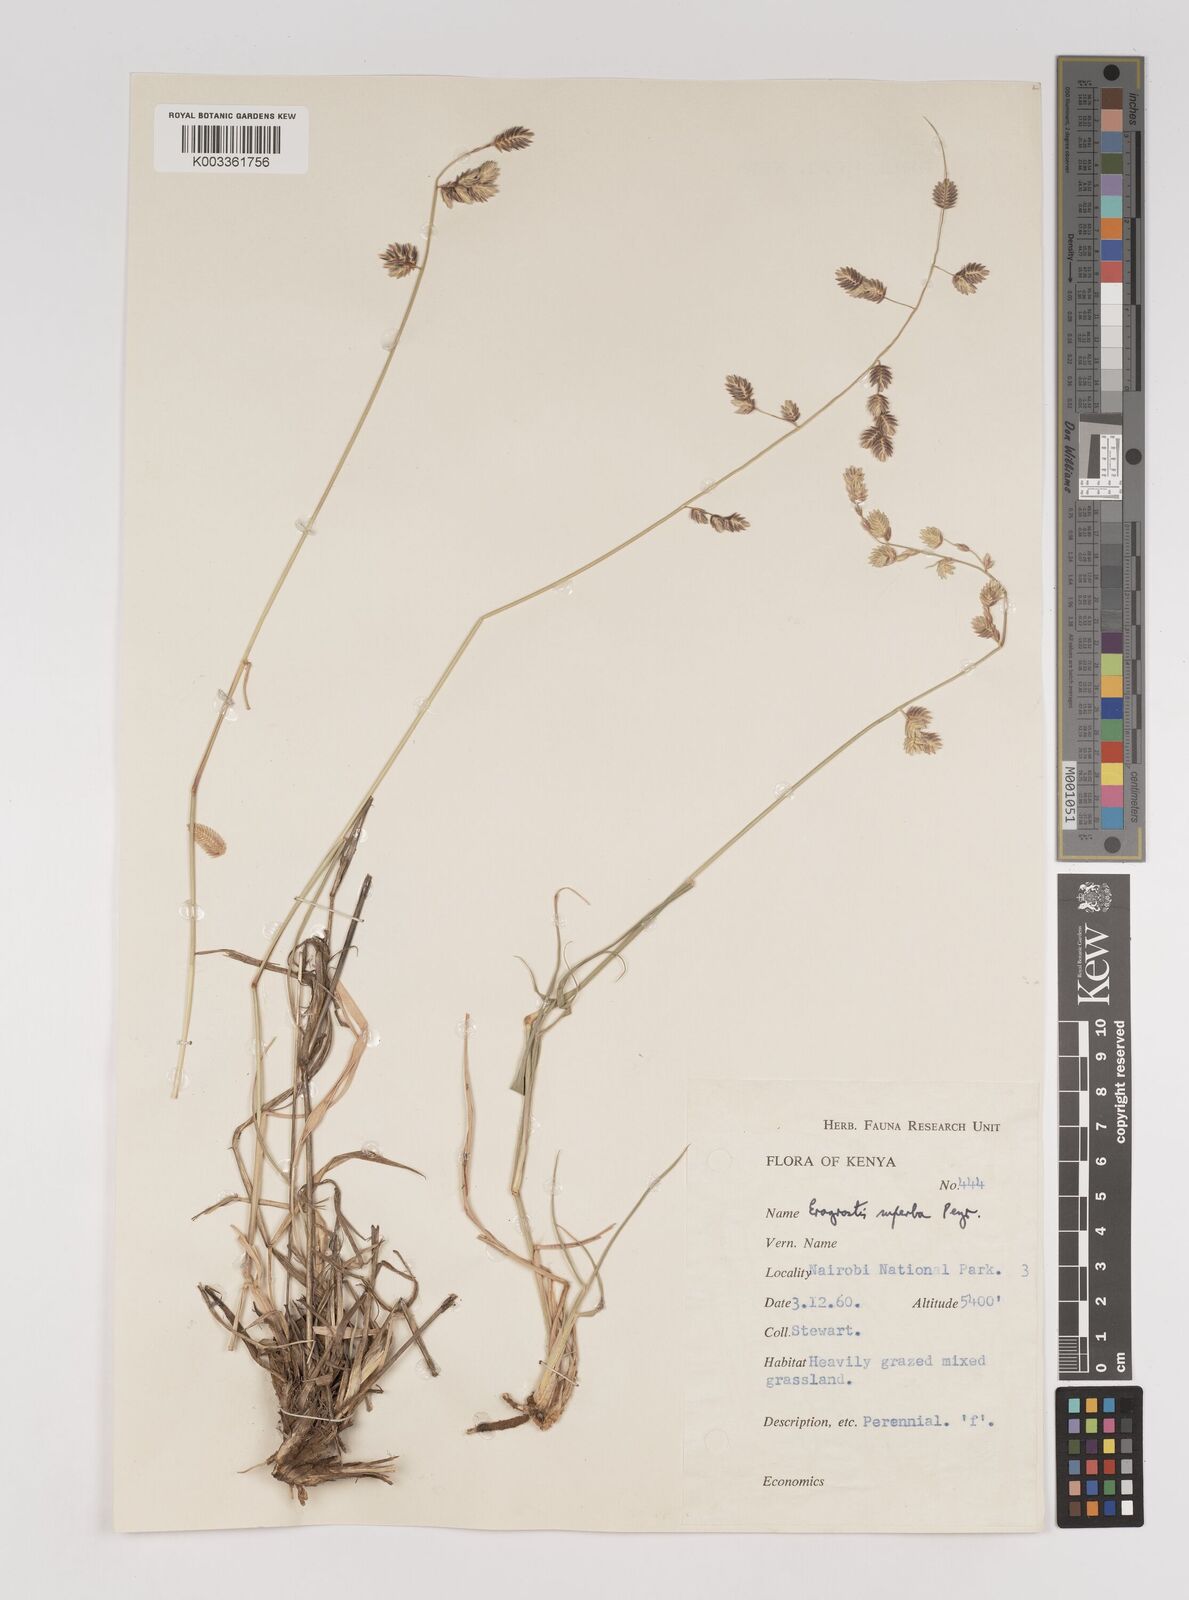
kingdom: Plantae
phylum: Tracheophyta
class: Liliopsida
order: Poales
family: Poaceae
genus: Eragrostis
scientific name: Eragrostis superba
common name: Wilman lovegrass
